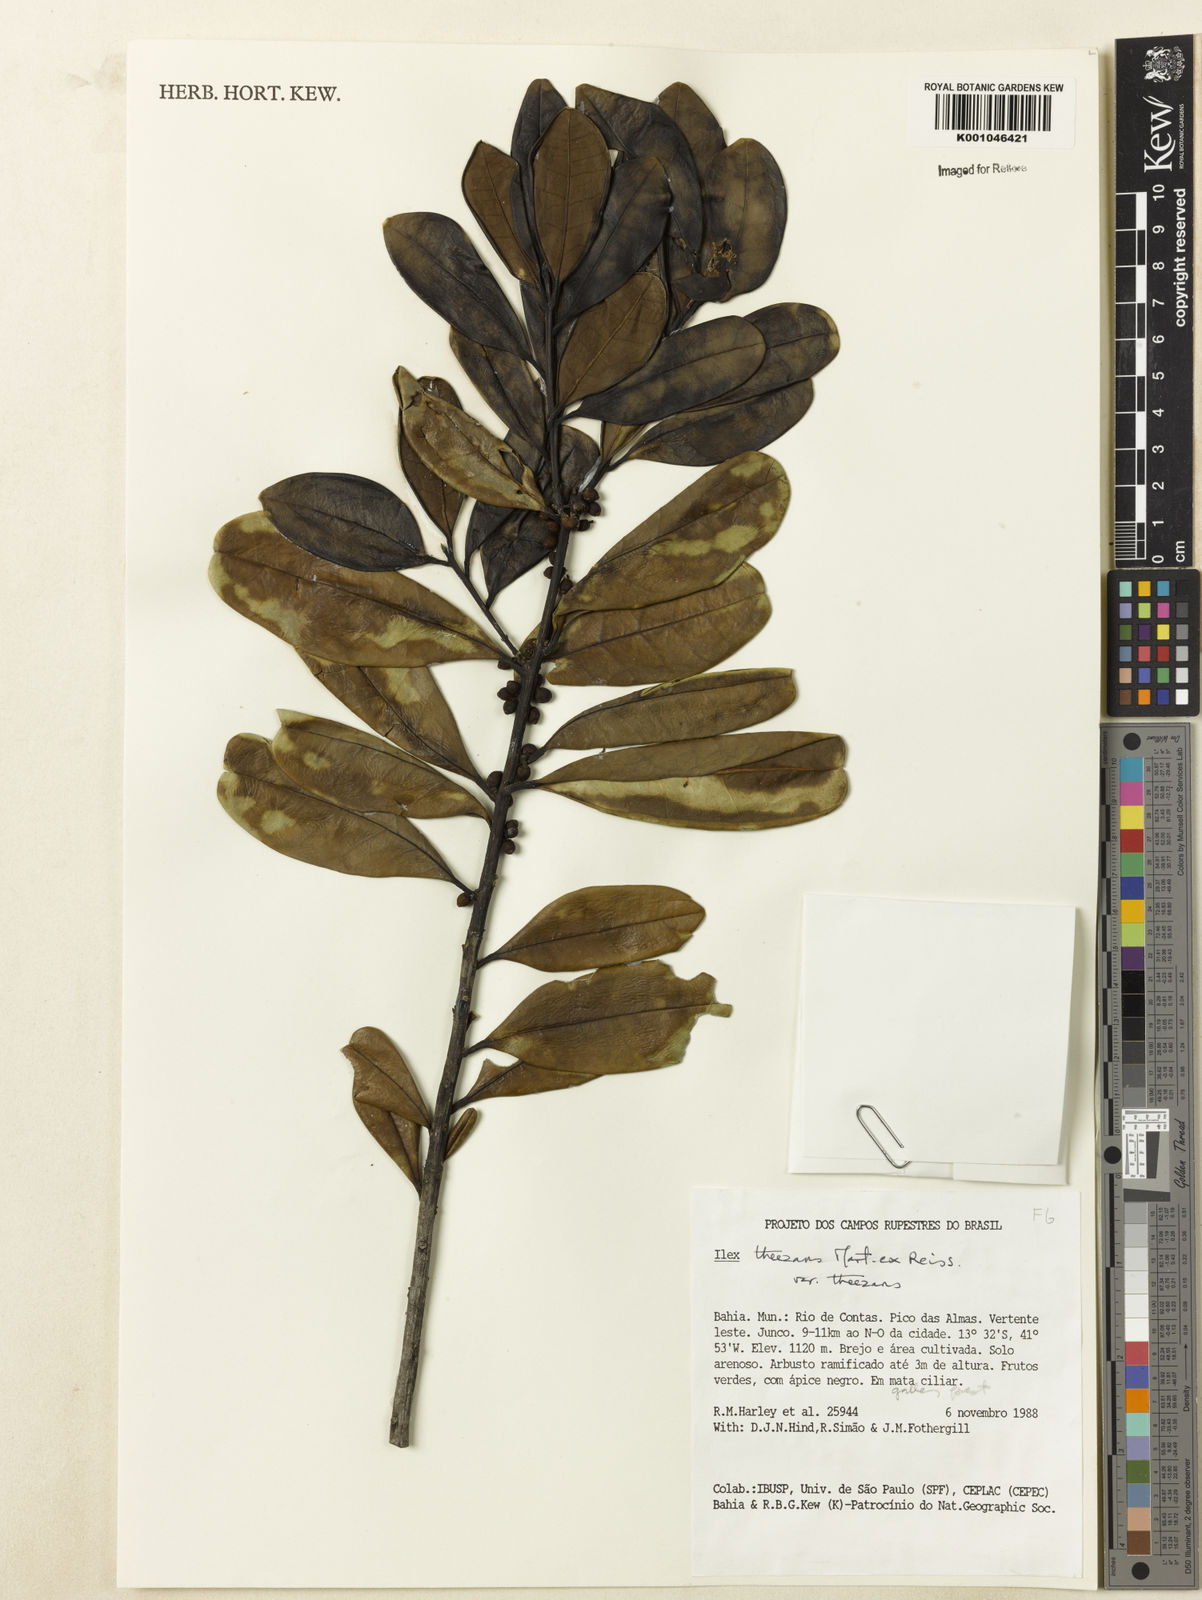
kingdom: Plantae
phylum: Tracheophyta
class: Magnoliopsida
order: Aquifoliales
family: Aquifoliaceae
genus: Ilex
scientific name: Ilex paraguariensis
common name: Paraguay tea
